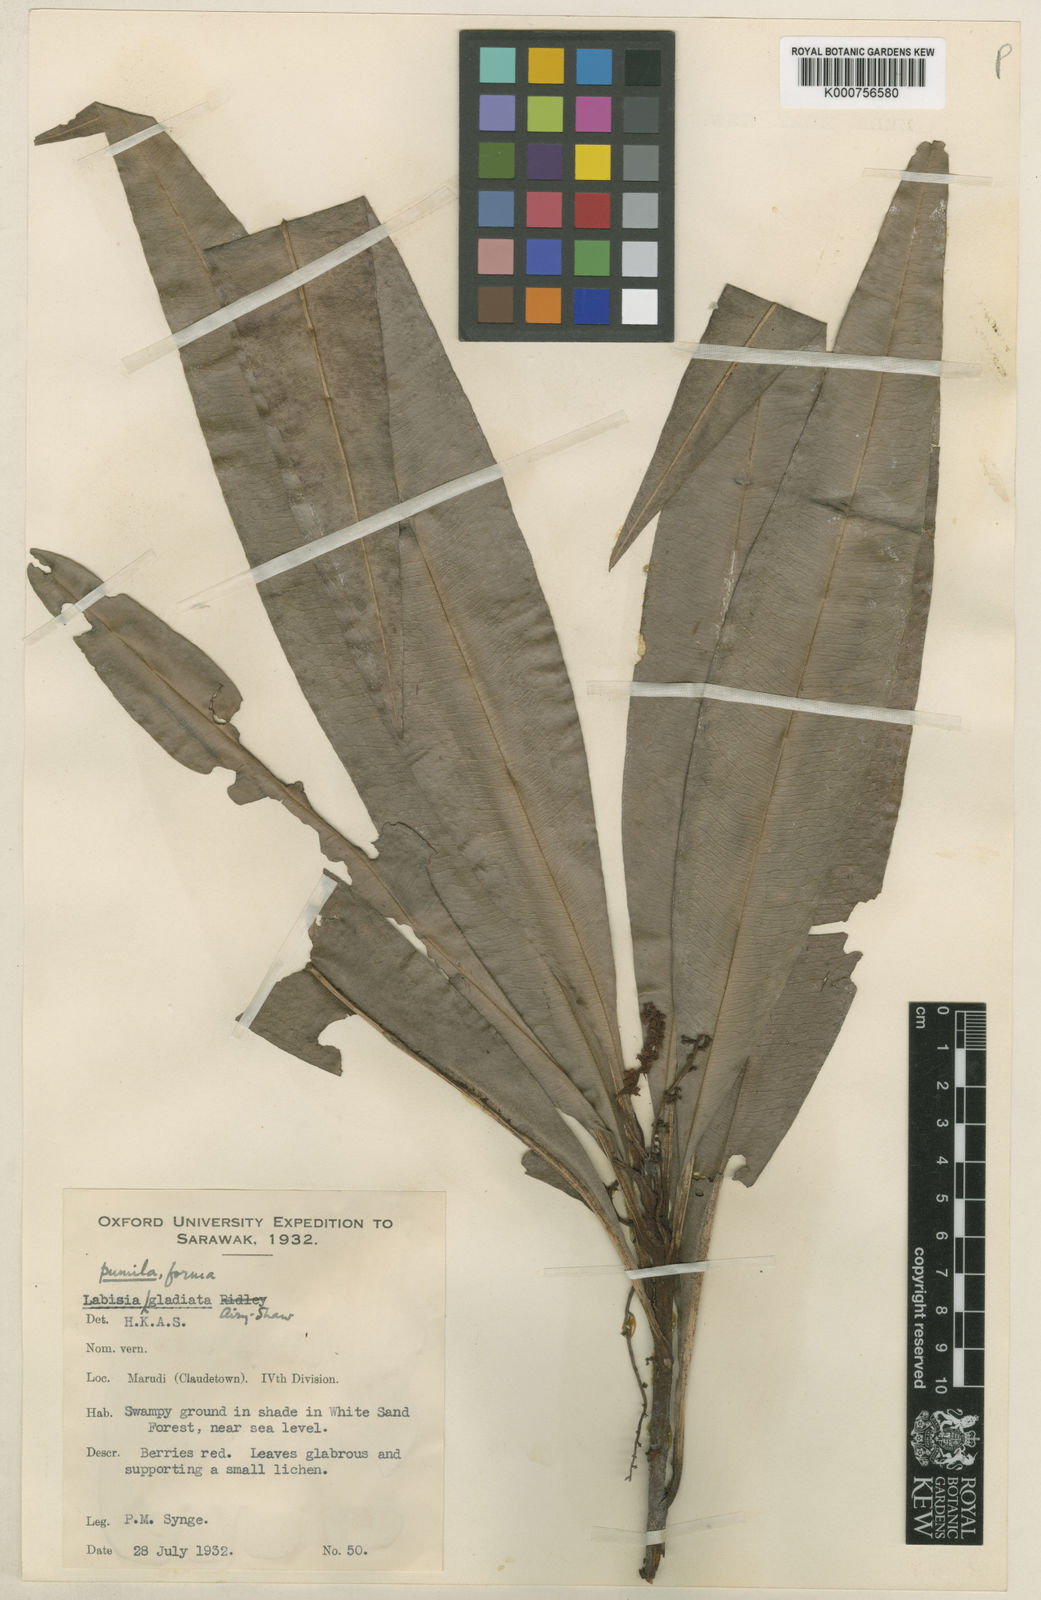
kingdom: Plantae
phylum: Tracheophyta
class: Magnoliopsida
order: Ericales
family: Primulaceae
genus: Labisia
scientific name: Labisia pumila
